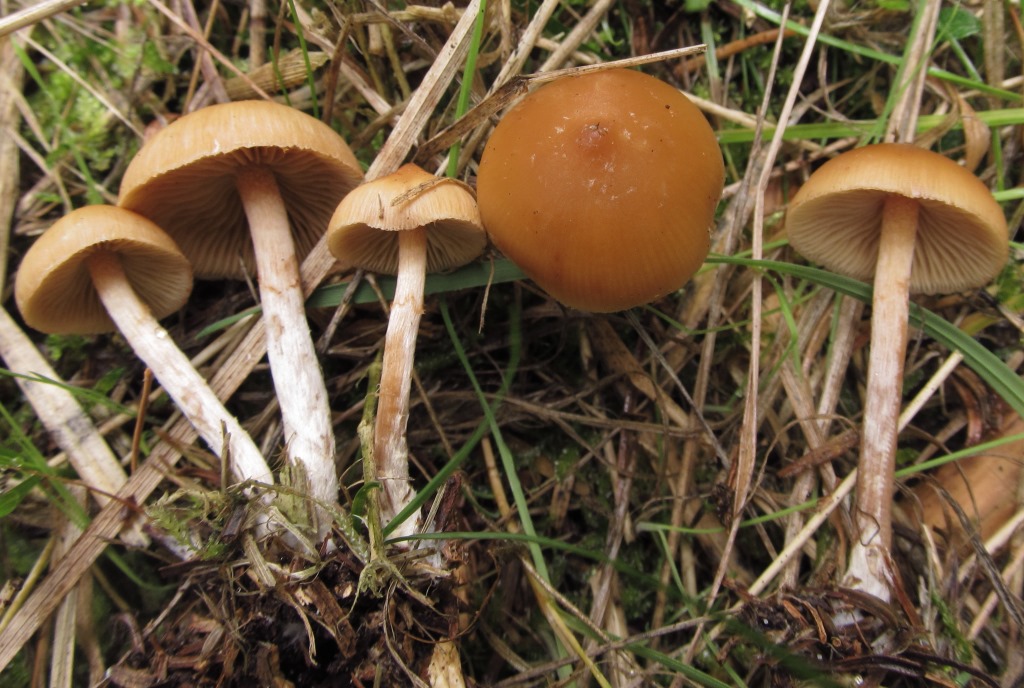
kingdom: Fungi
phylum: Basidiomycota
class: Agaricomycetes
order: Agaricales
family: Hymenogastraceae
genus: Galerina
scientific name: Galerina sideroides
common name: træflis-hjelmhat
